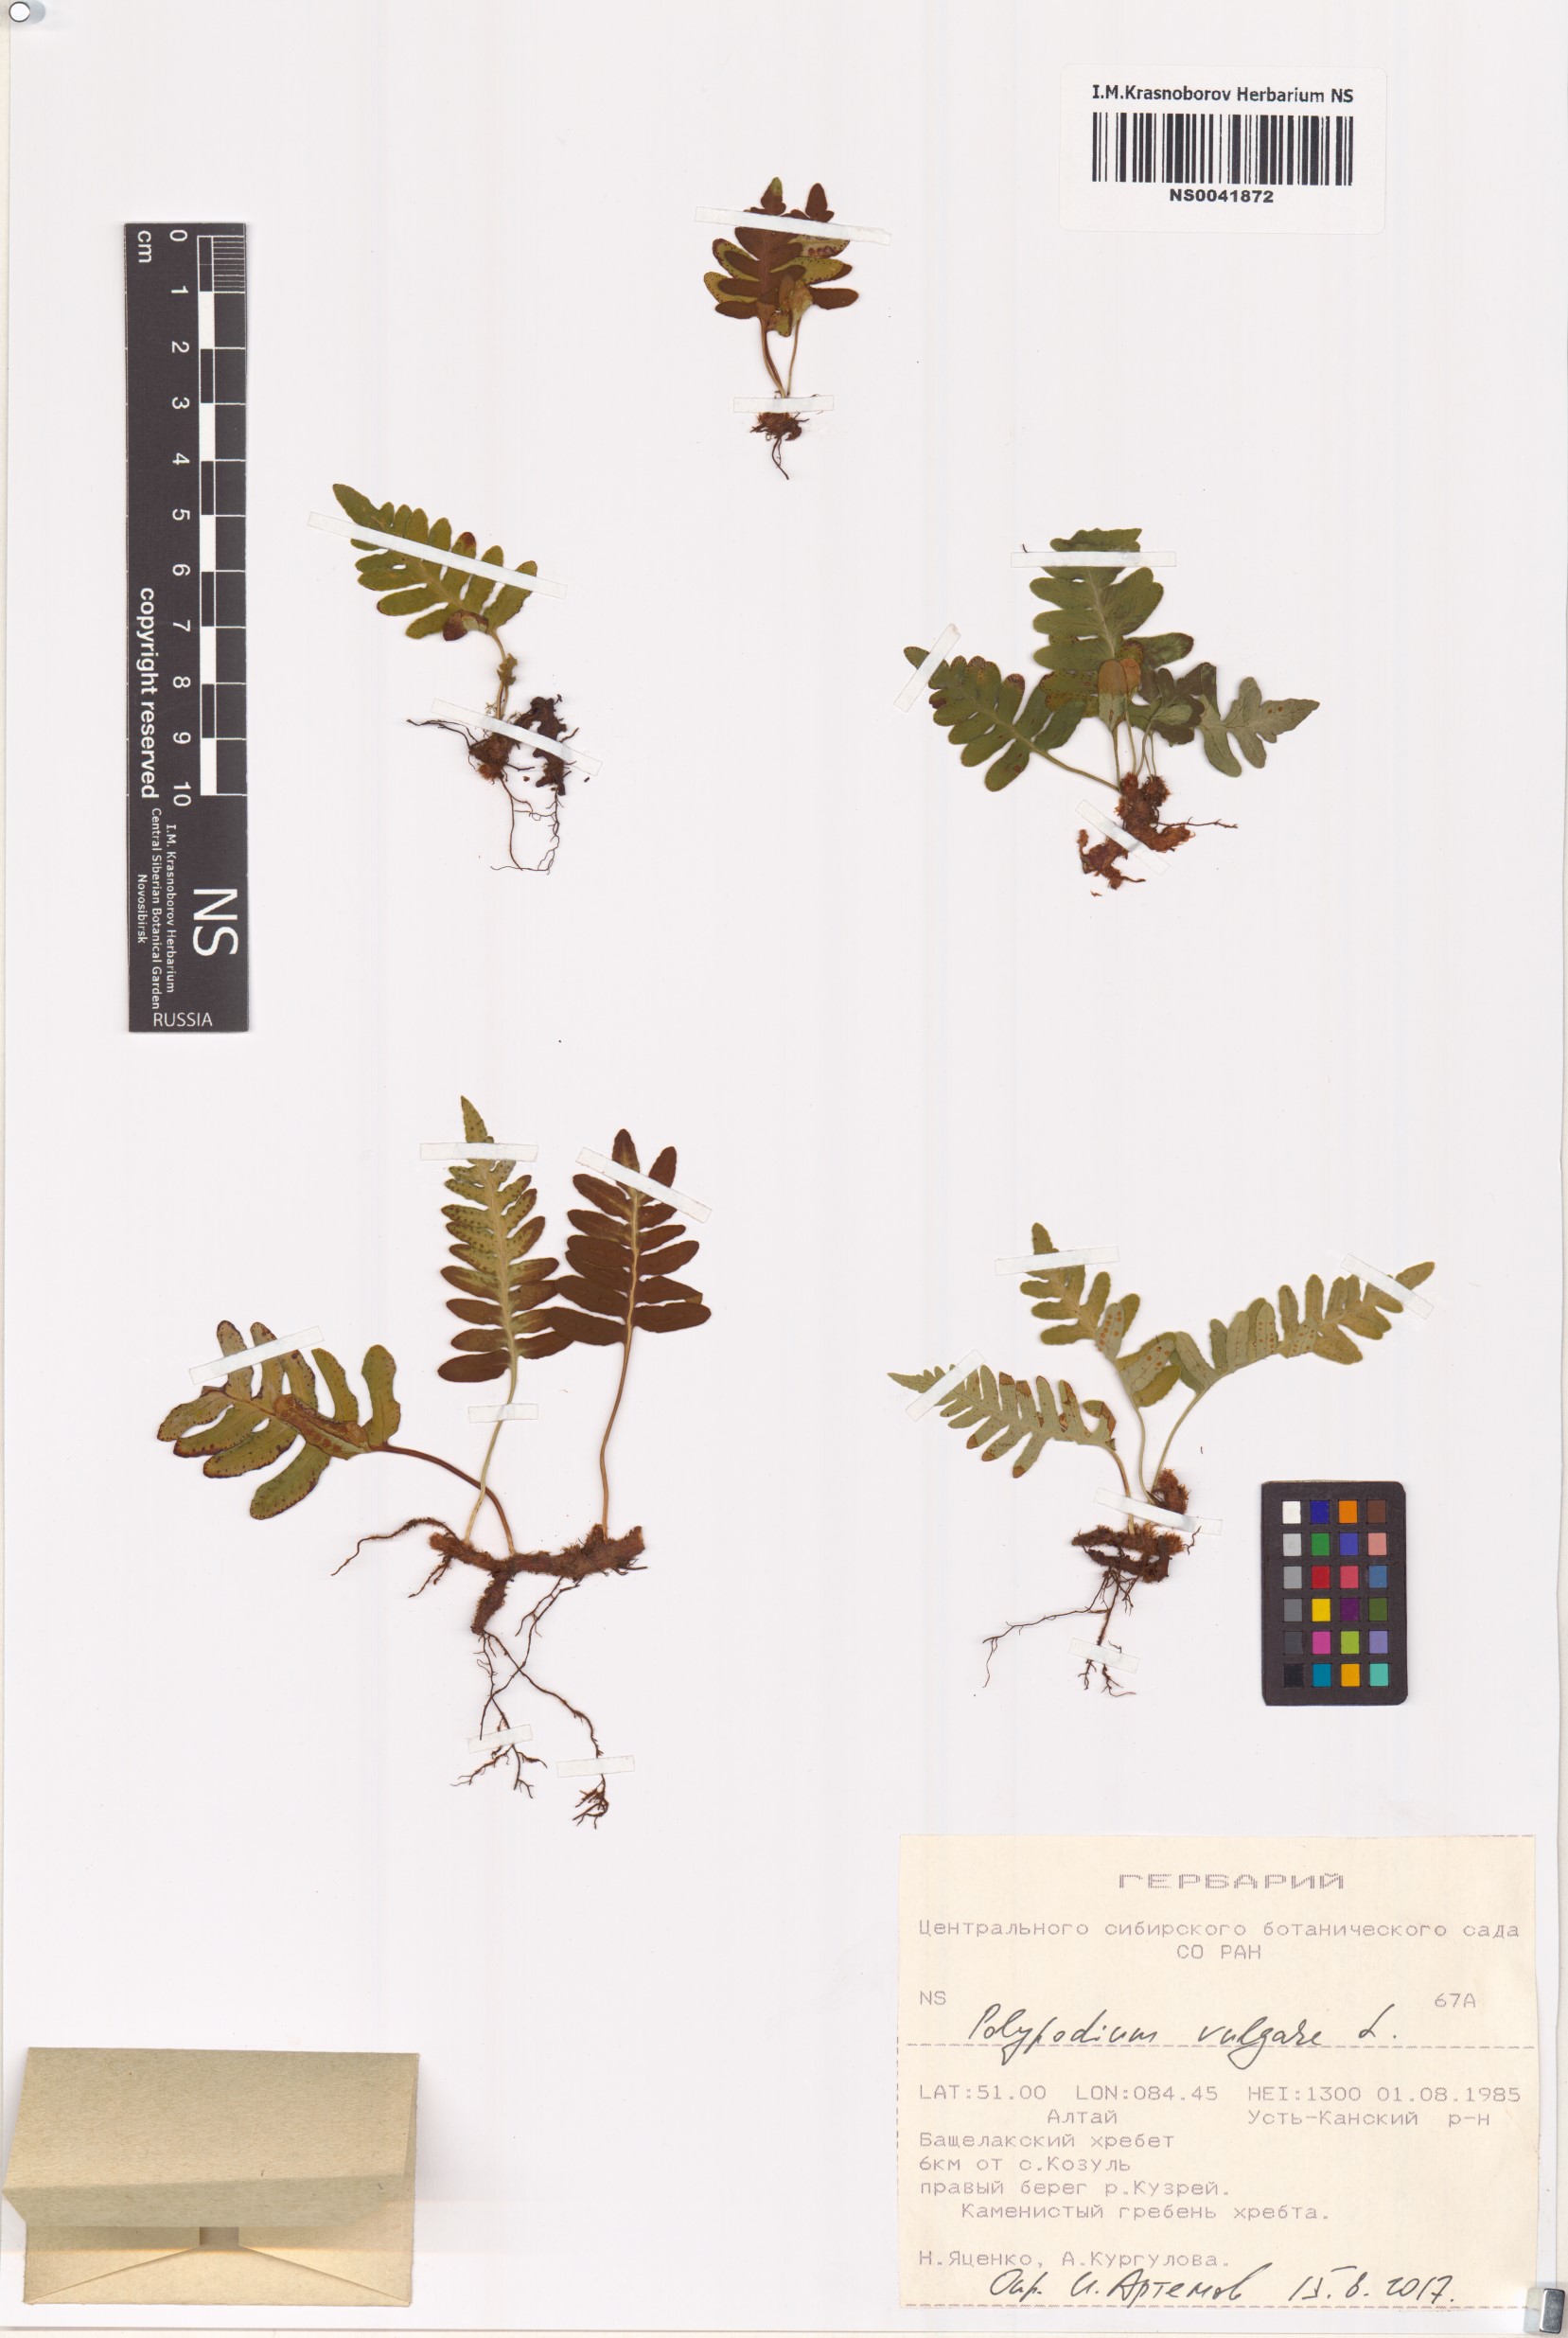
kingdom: Plantae
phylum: Tracheophyta
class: Polypodiopsida
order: Polypodiales
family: Polypodiaceae
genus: Polypodium
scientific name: Polypodium vulgare
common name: Common polypody
